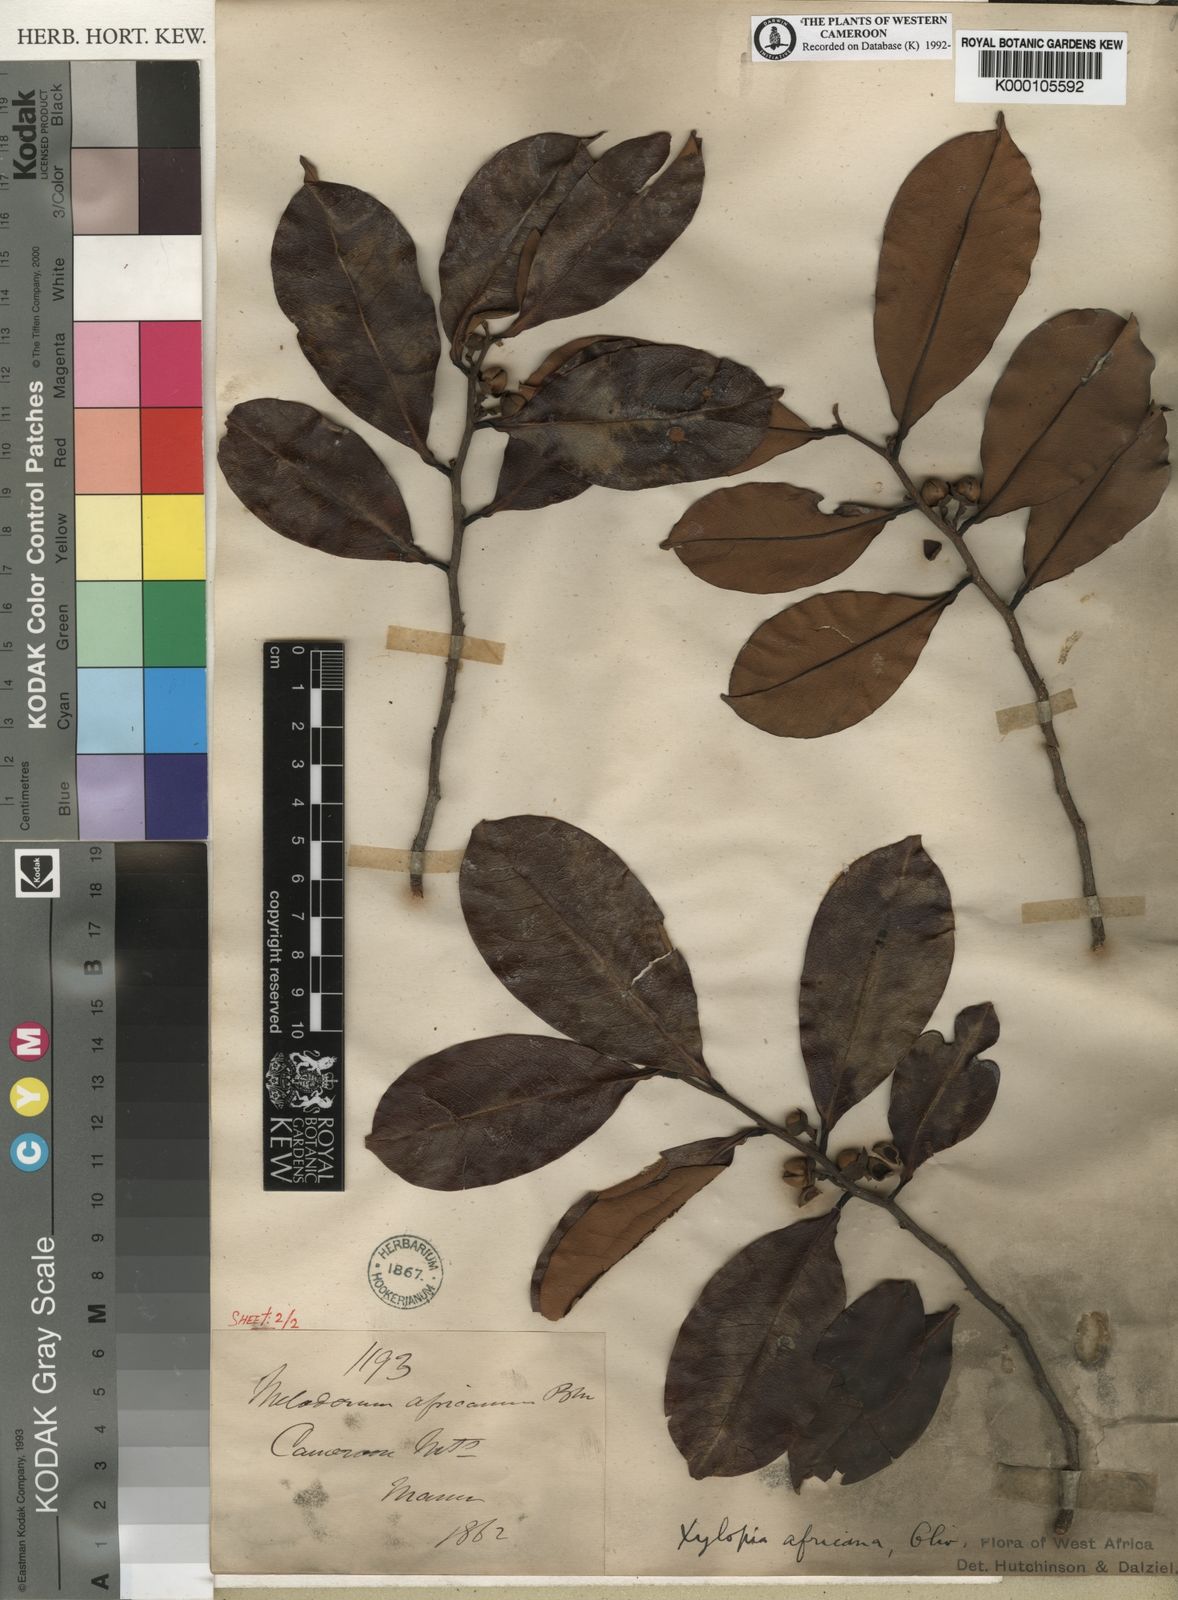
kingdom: Plantae
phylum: Tracheophyta
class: Magnoliopsida
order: Magnoliales
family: Annonaceae
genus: Xylopia
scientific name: Xylopia africana
